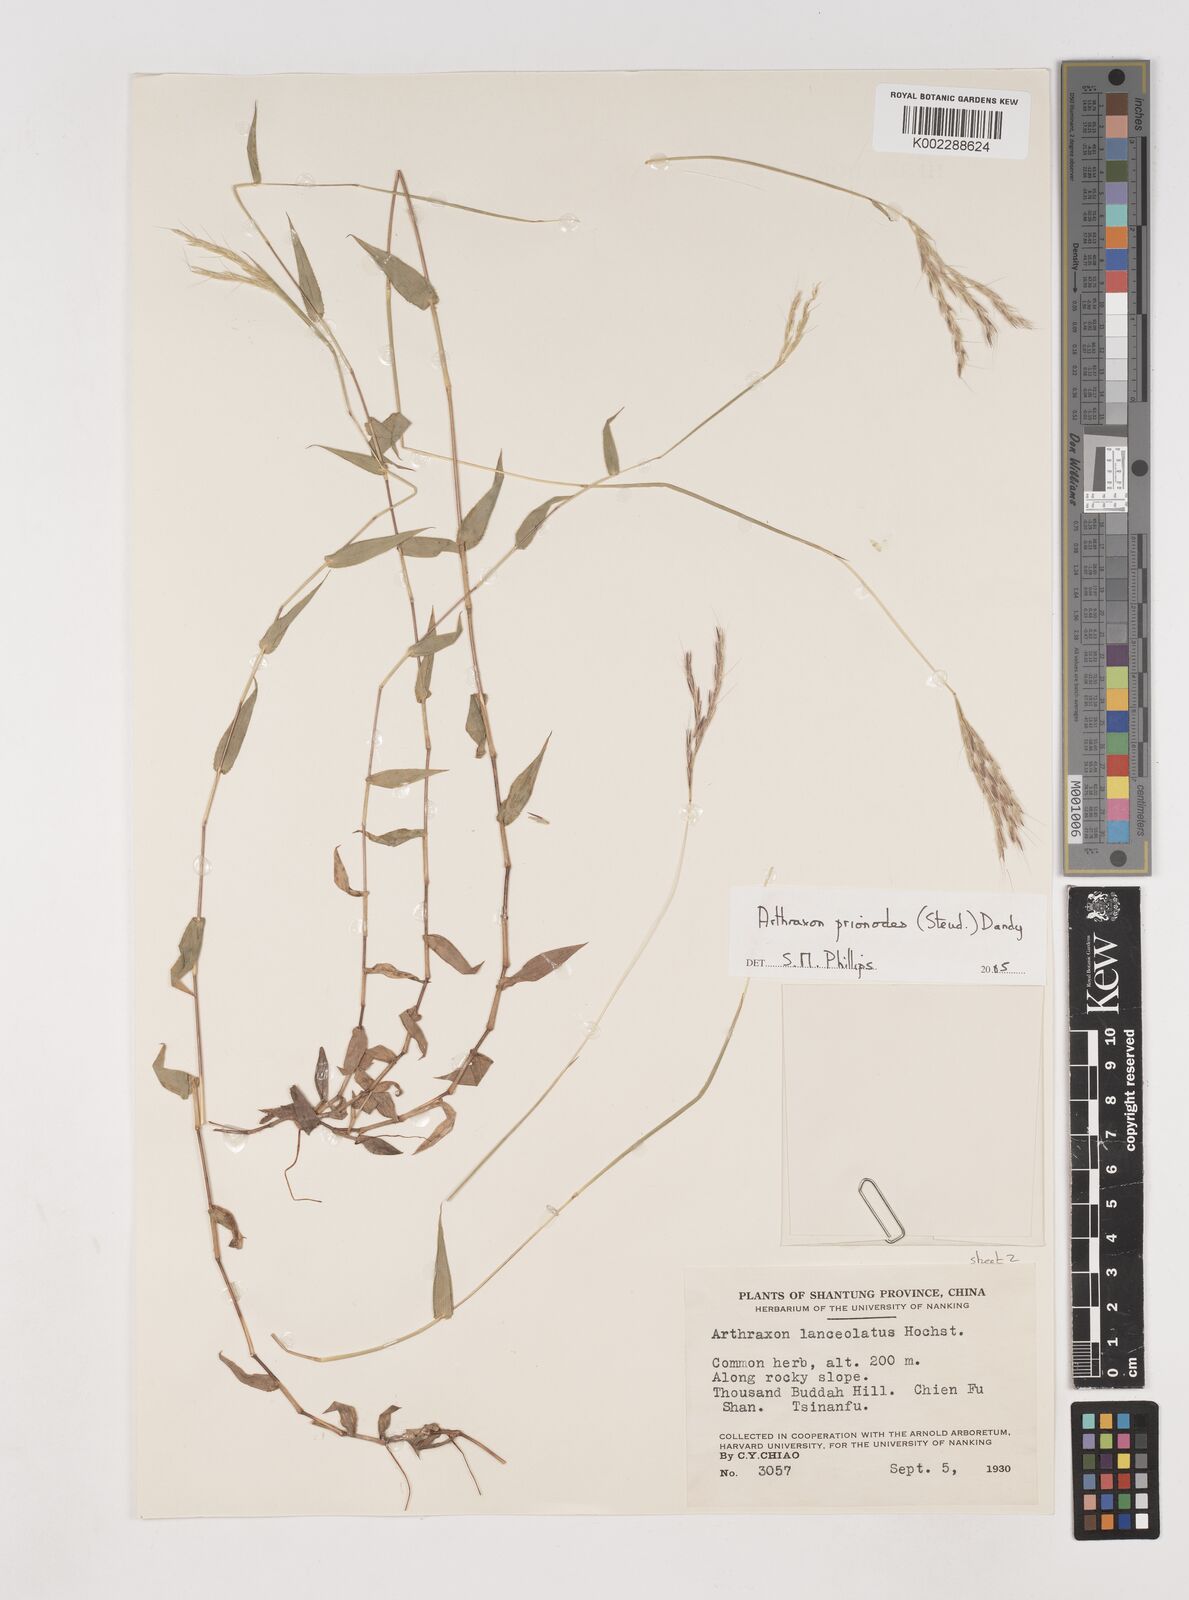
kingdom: Plantae
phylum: Tracheophyta
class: Liliopsida
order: Poales
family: Poaceae
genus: Arthraxon
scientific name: Arthraxon prionodes
